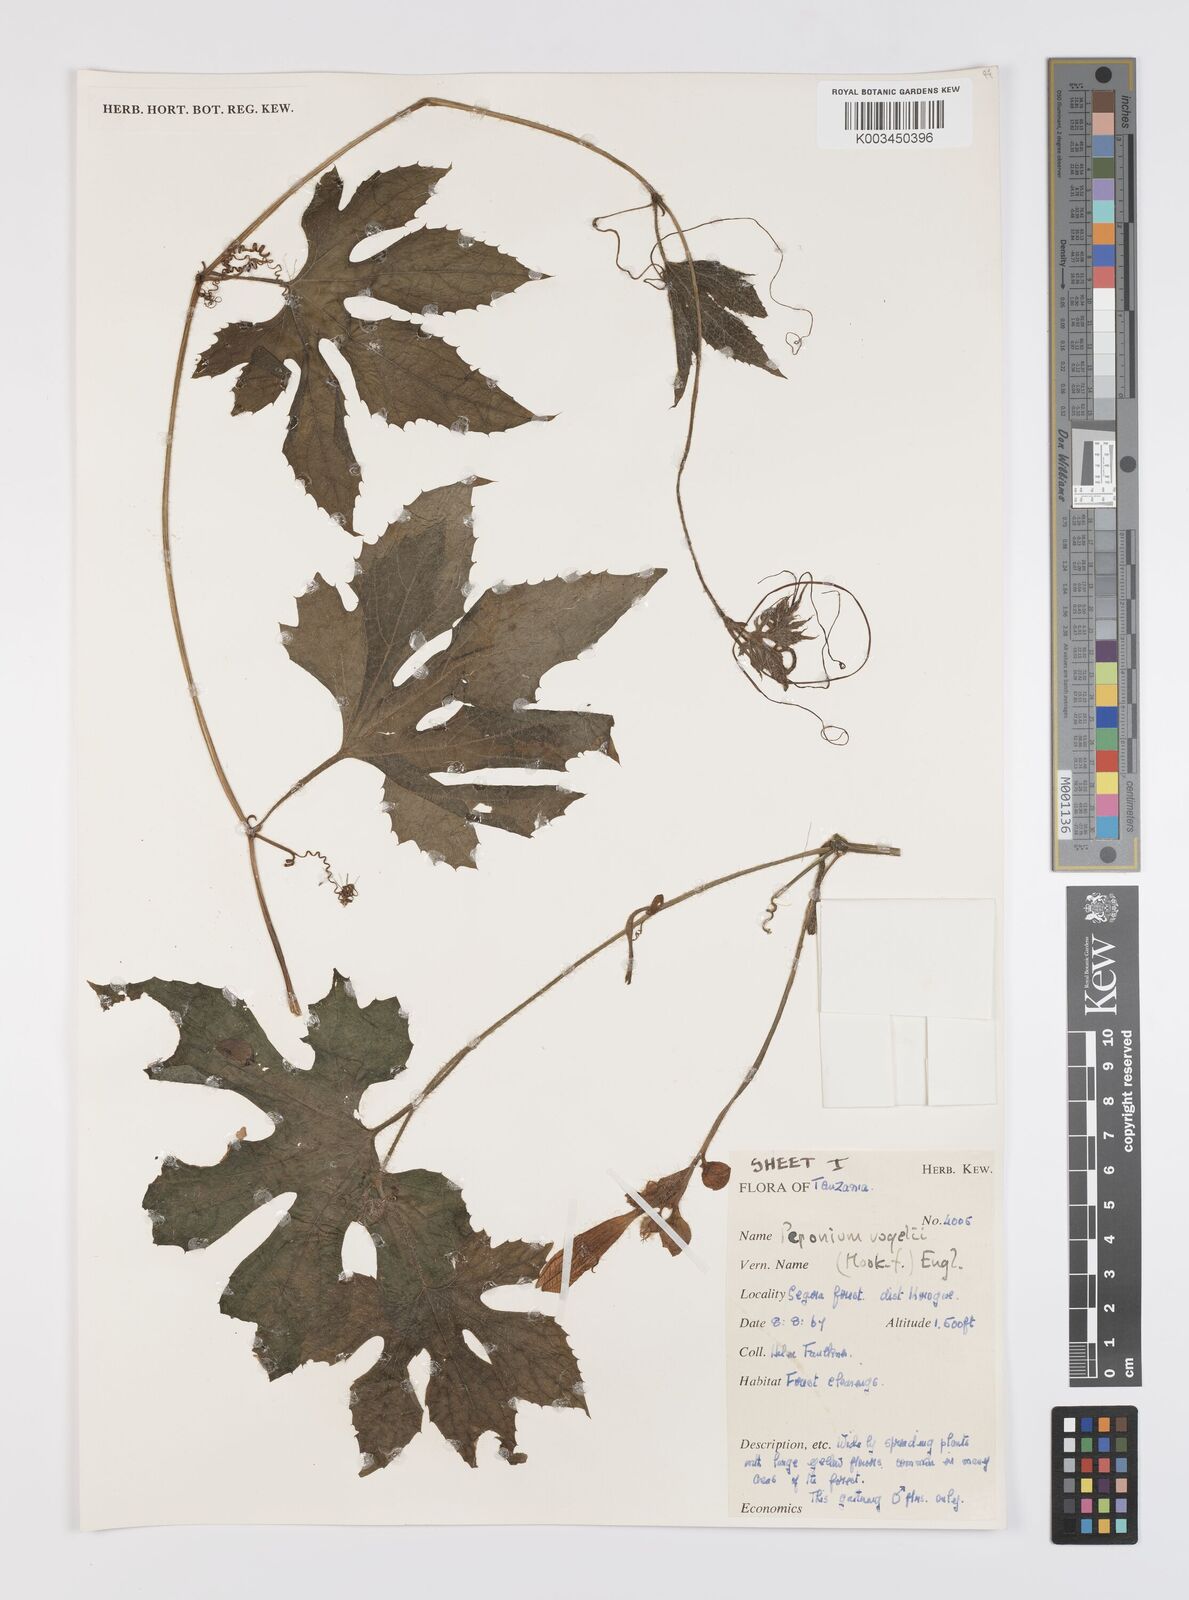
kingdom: Plantae
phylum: Tracheophyta
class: Magnoliopsida
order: Cucurbitales
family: Cucurbitaceae
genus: Peponium
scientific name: Peponium vogelii
